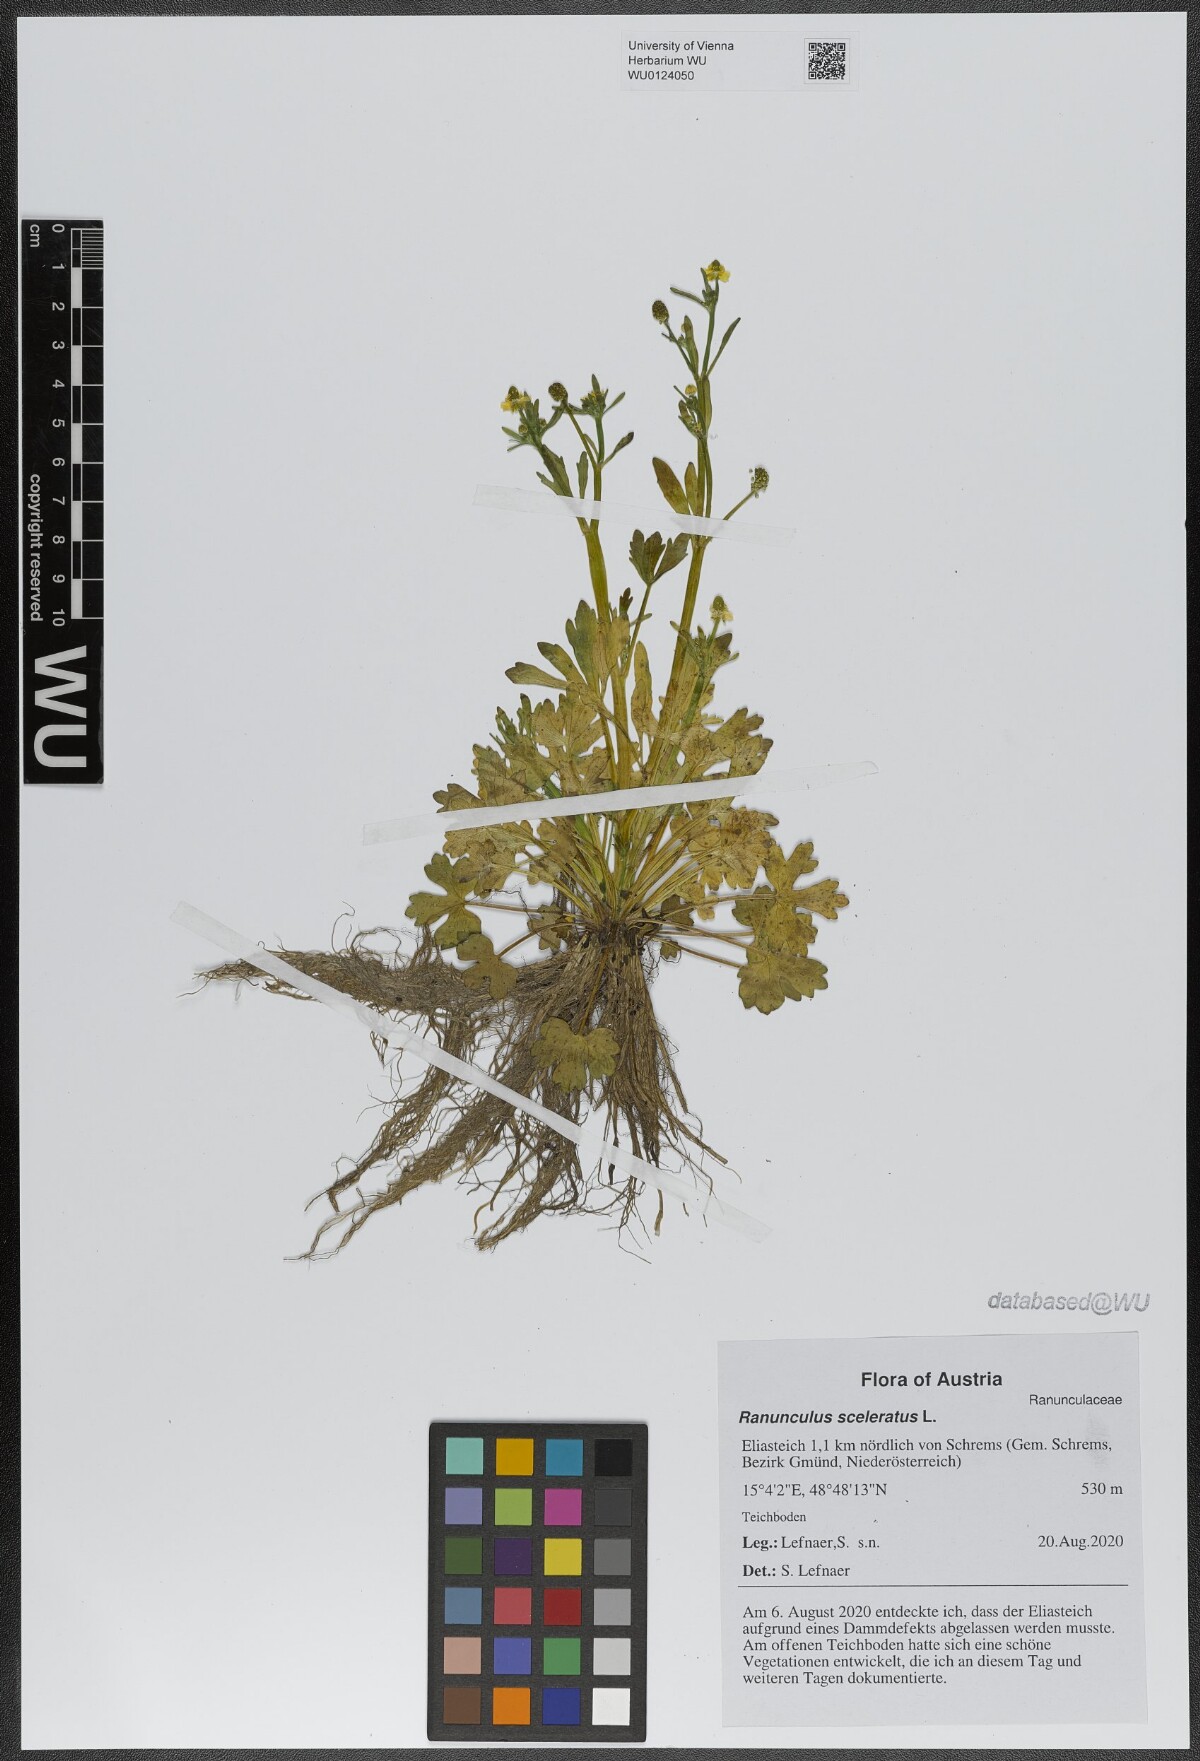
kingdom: Plantae
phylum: Tracheophyta
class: Magnoliopsida
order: Ranunculales
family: Ranunculaceae
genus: Ranunculus
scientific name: Ranunculus sceleratus
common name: Celery-leaved buttercup
